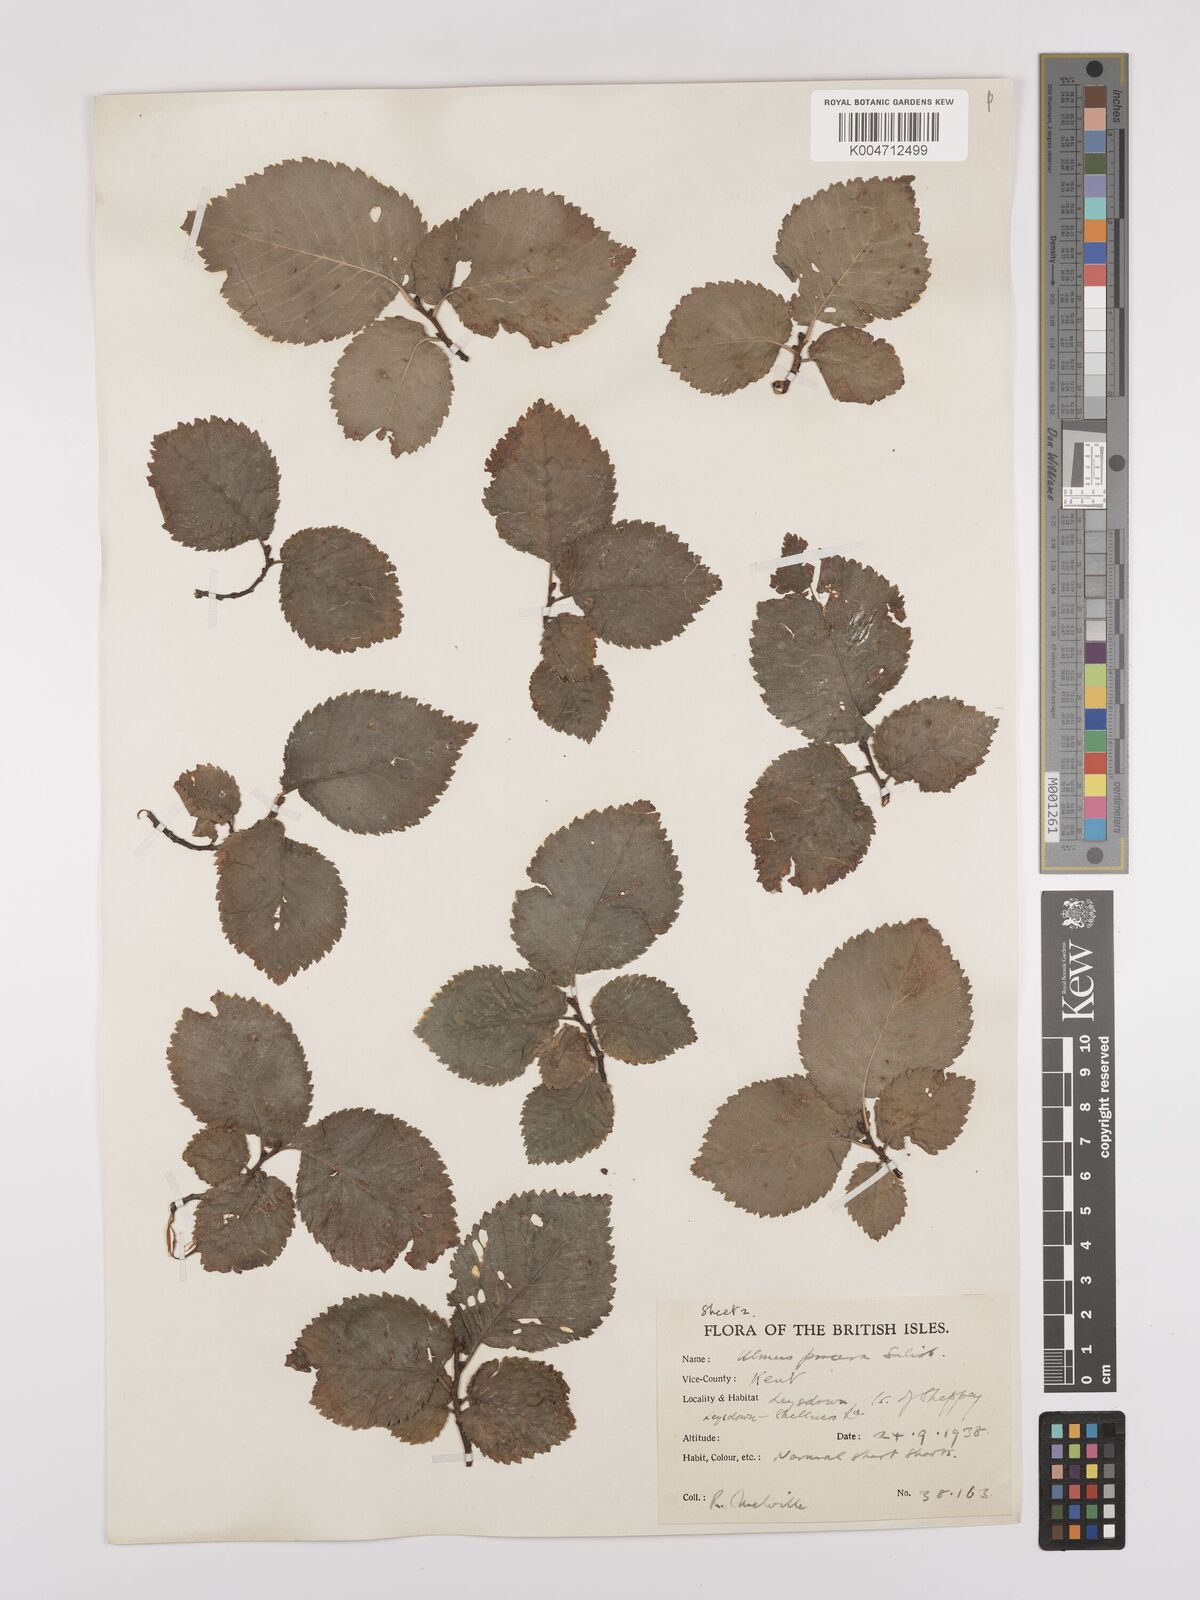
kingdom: Plantae
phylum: Tracheophyta
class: Magnoliopsida
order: Rosales
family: Ulmaceae
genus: Ulmus
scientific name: Ulmus minor
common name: Small-leaved elm
